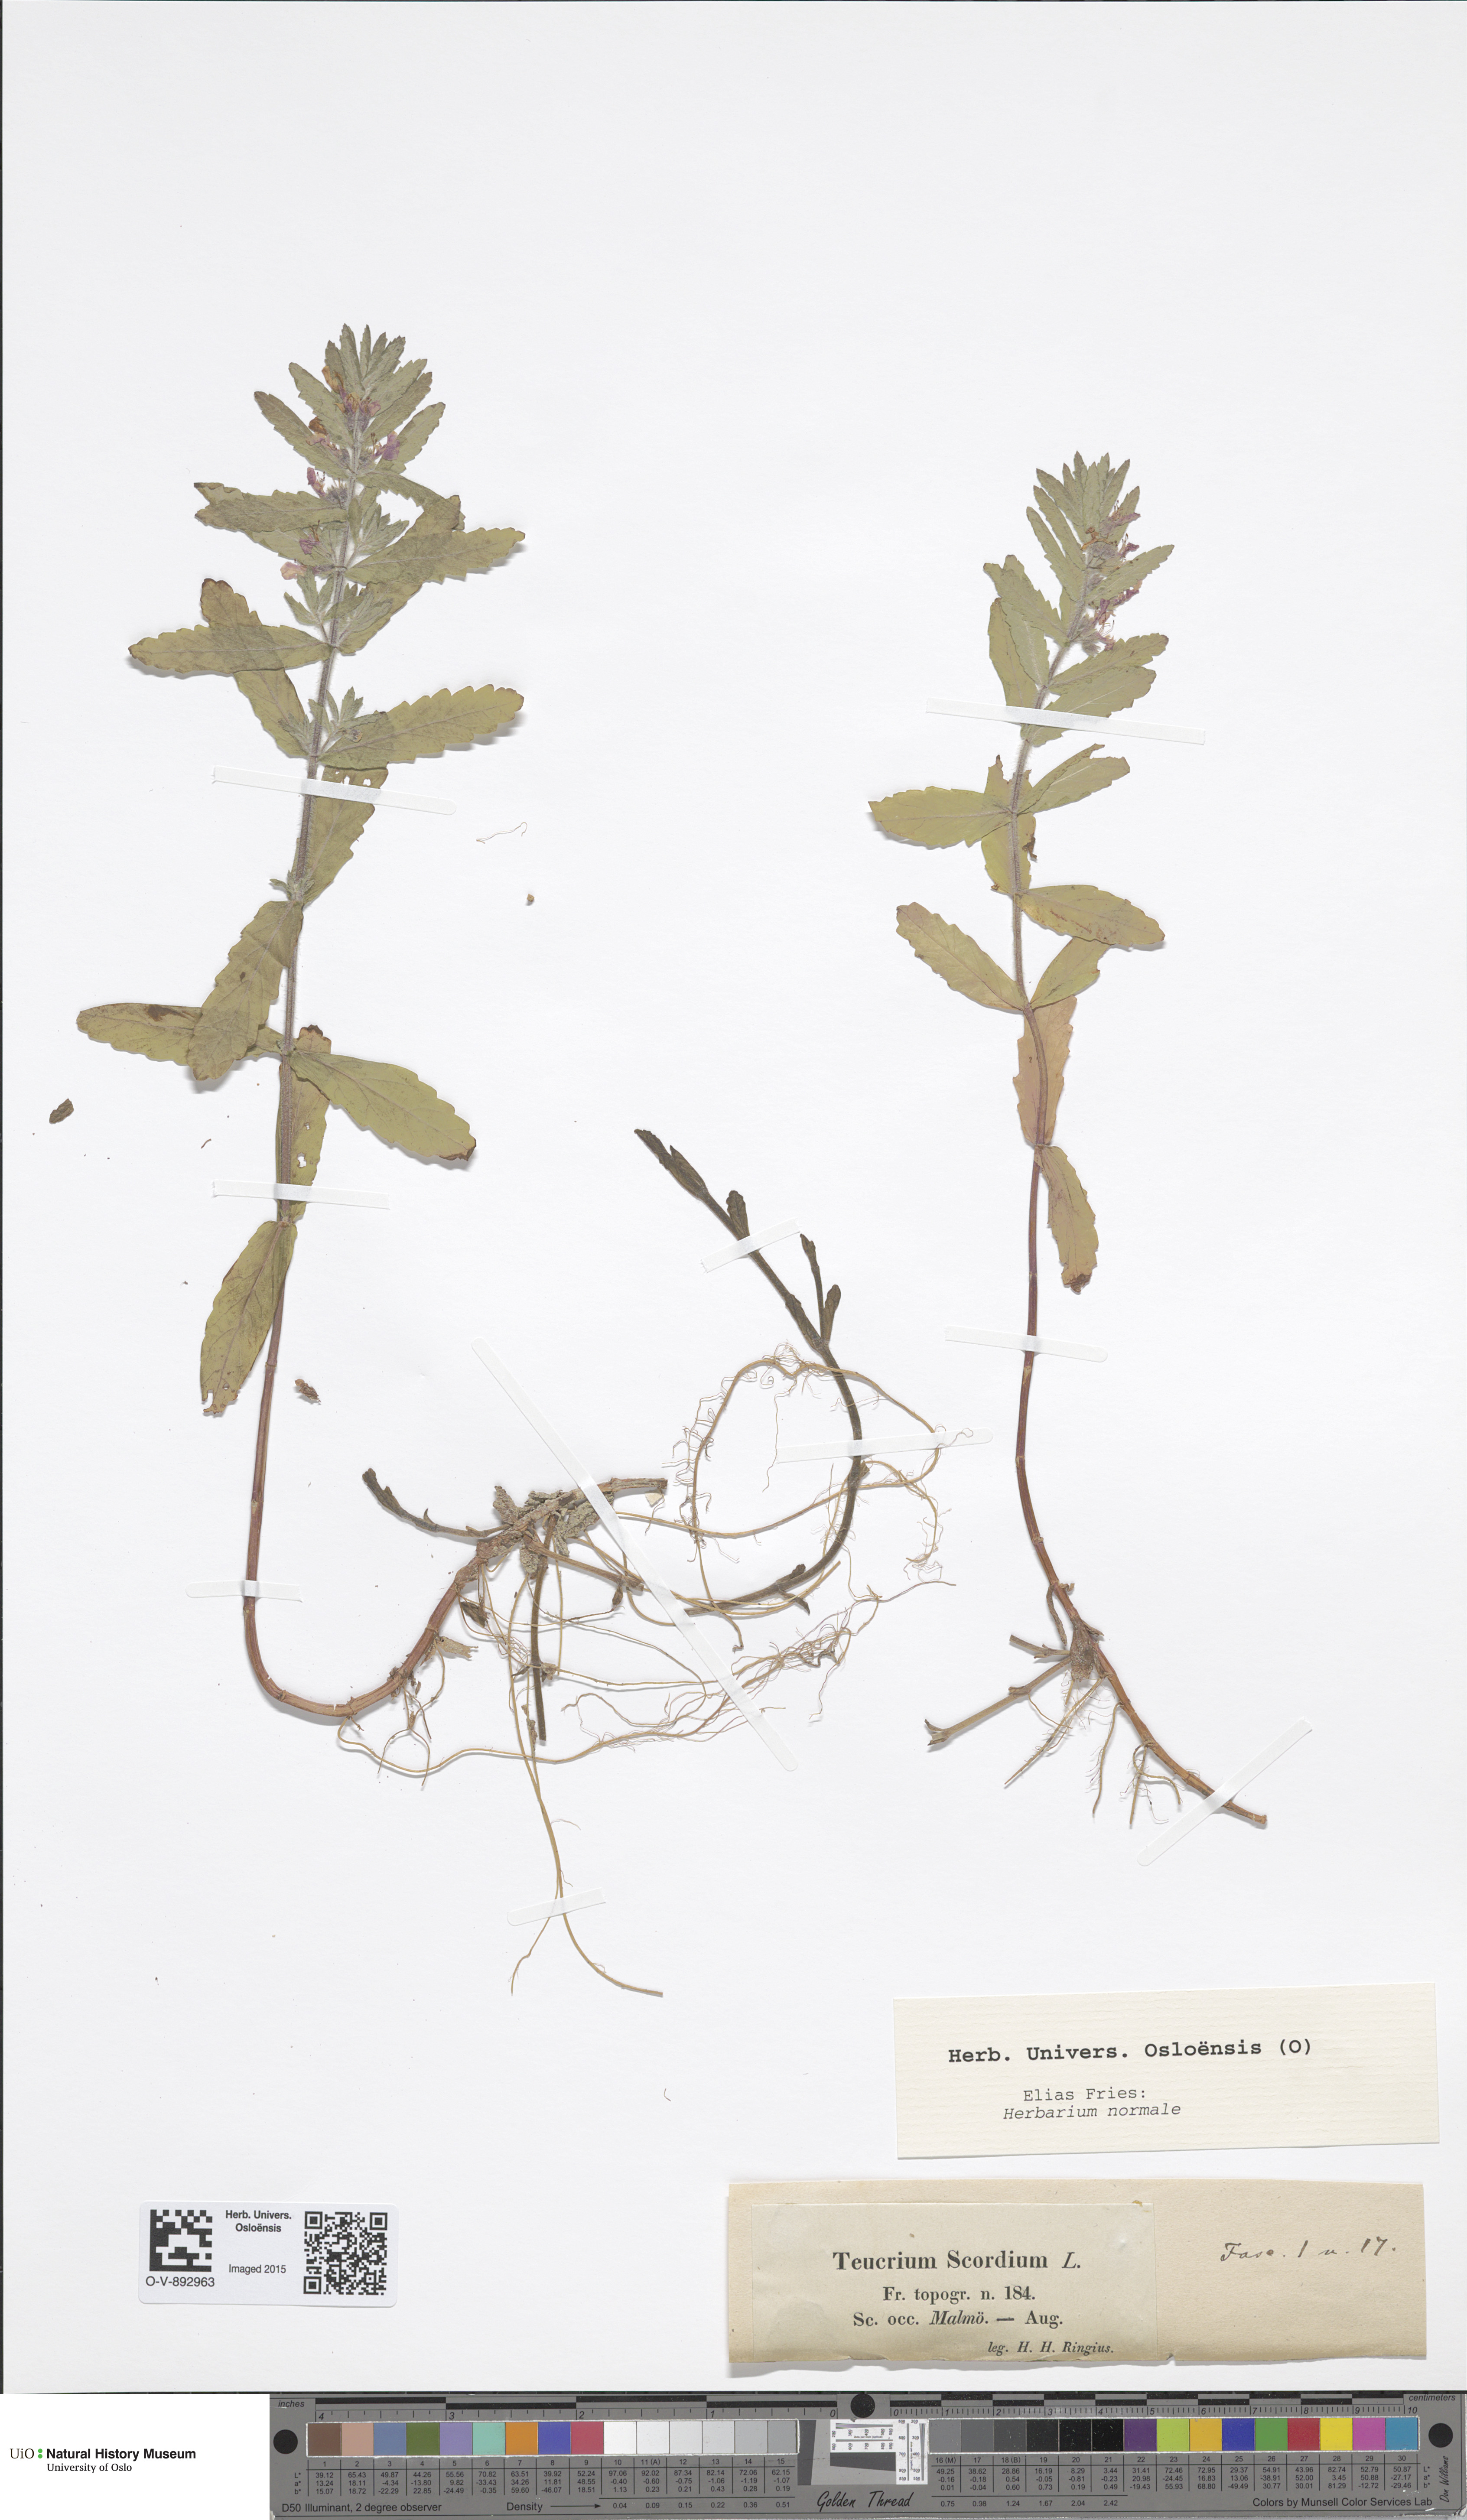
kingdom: Plantae
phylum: Tracheophyta
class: Magnoliopsida
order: Lamiales
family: Lamiaceae
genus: Teucrium
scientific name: Teucrium scordium
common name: Water germander
